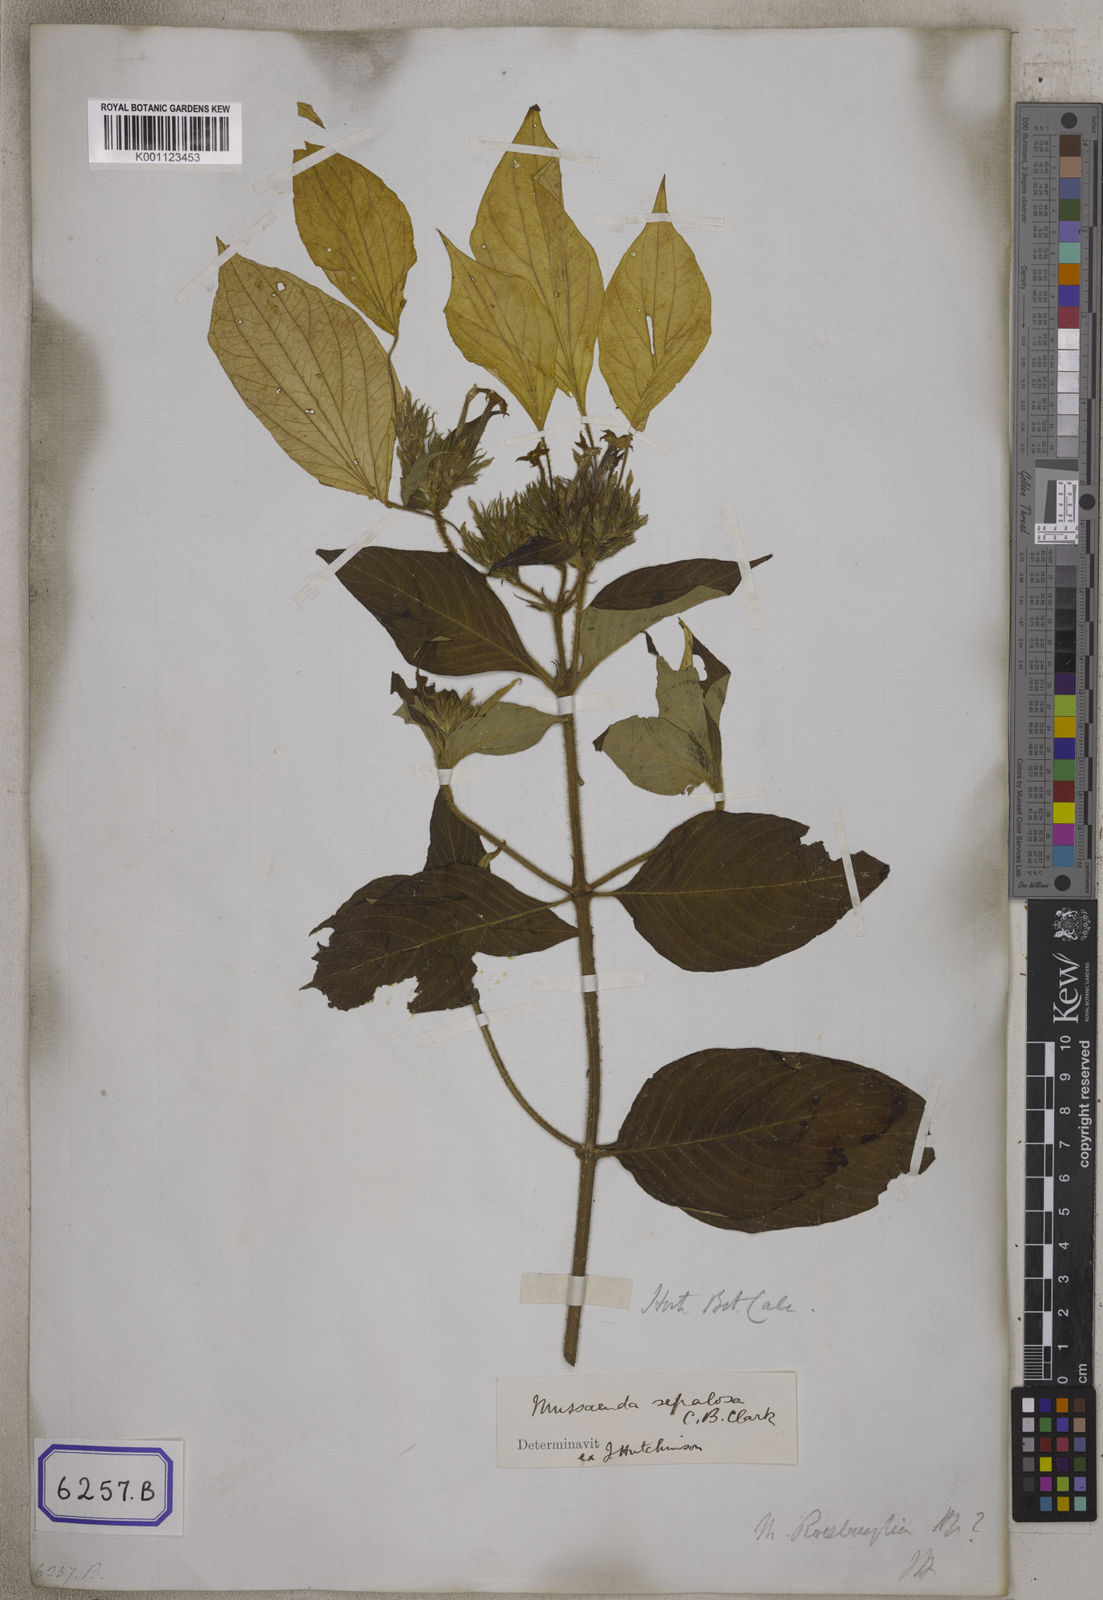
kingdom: Plantae
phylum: Tracheophyta
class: Magnoliopsida
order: Gentianales
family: Rubiaceae
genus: Mussaenda
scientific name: Mussaenda
